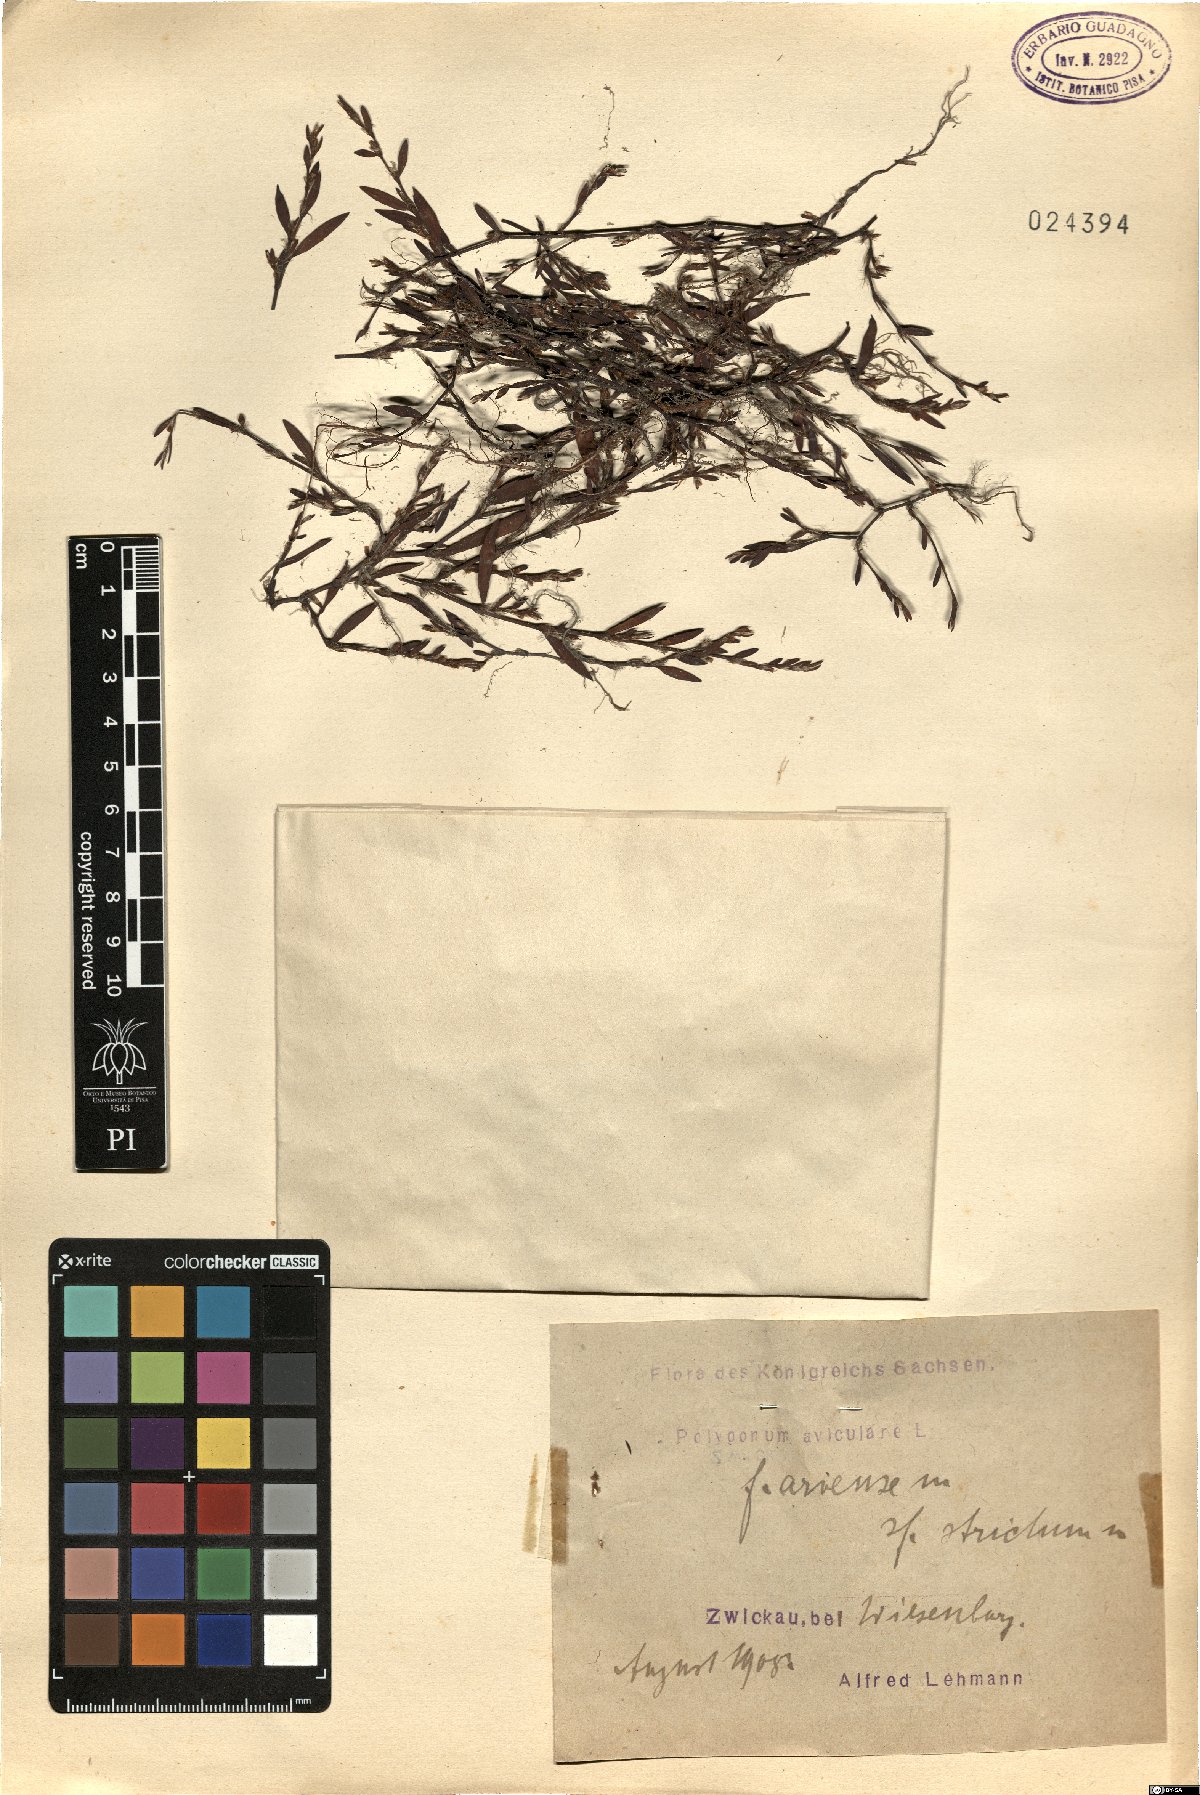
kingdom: Plantae
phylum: Tracheophyta
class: Magnoliopsida
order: Caryophyllales
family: Polygonaceae
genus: Polygonum
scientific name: Polygonum aviculare
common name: Prostrate knotweed
